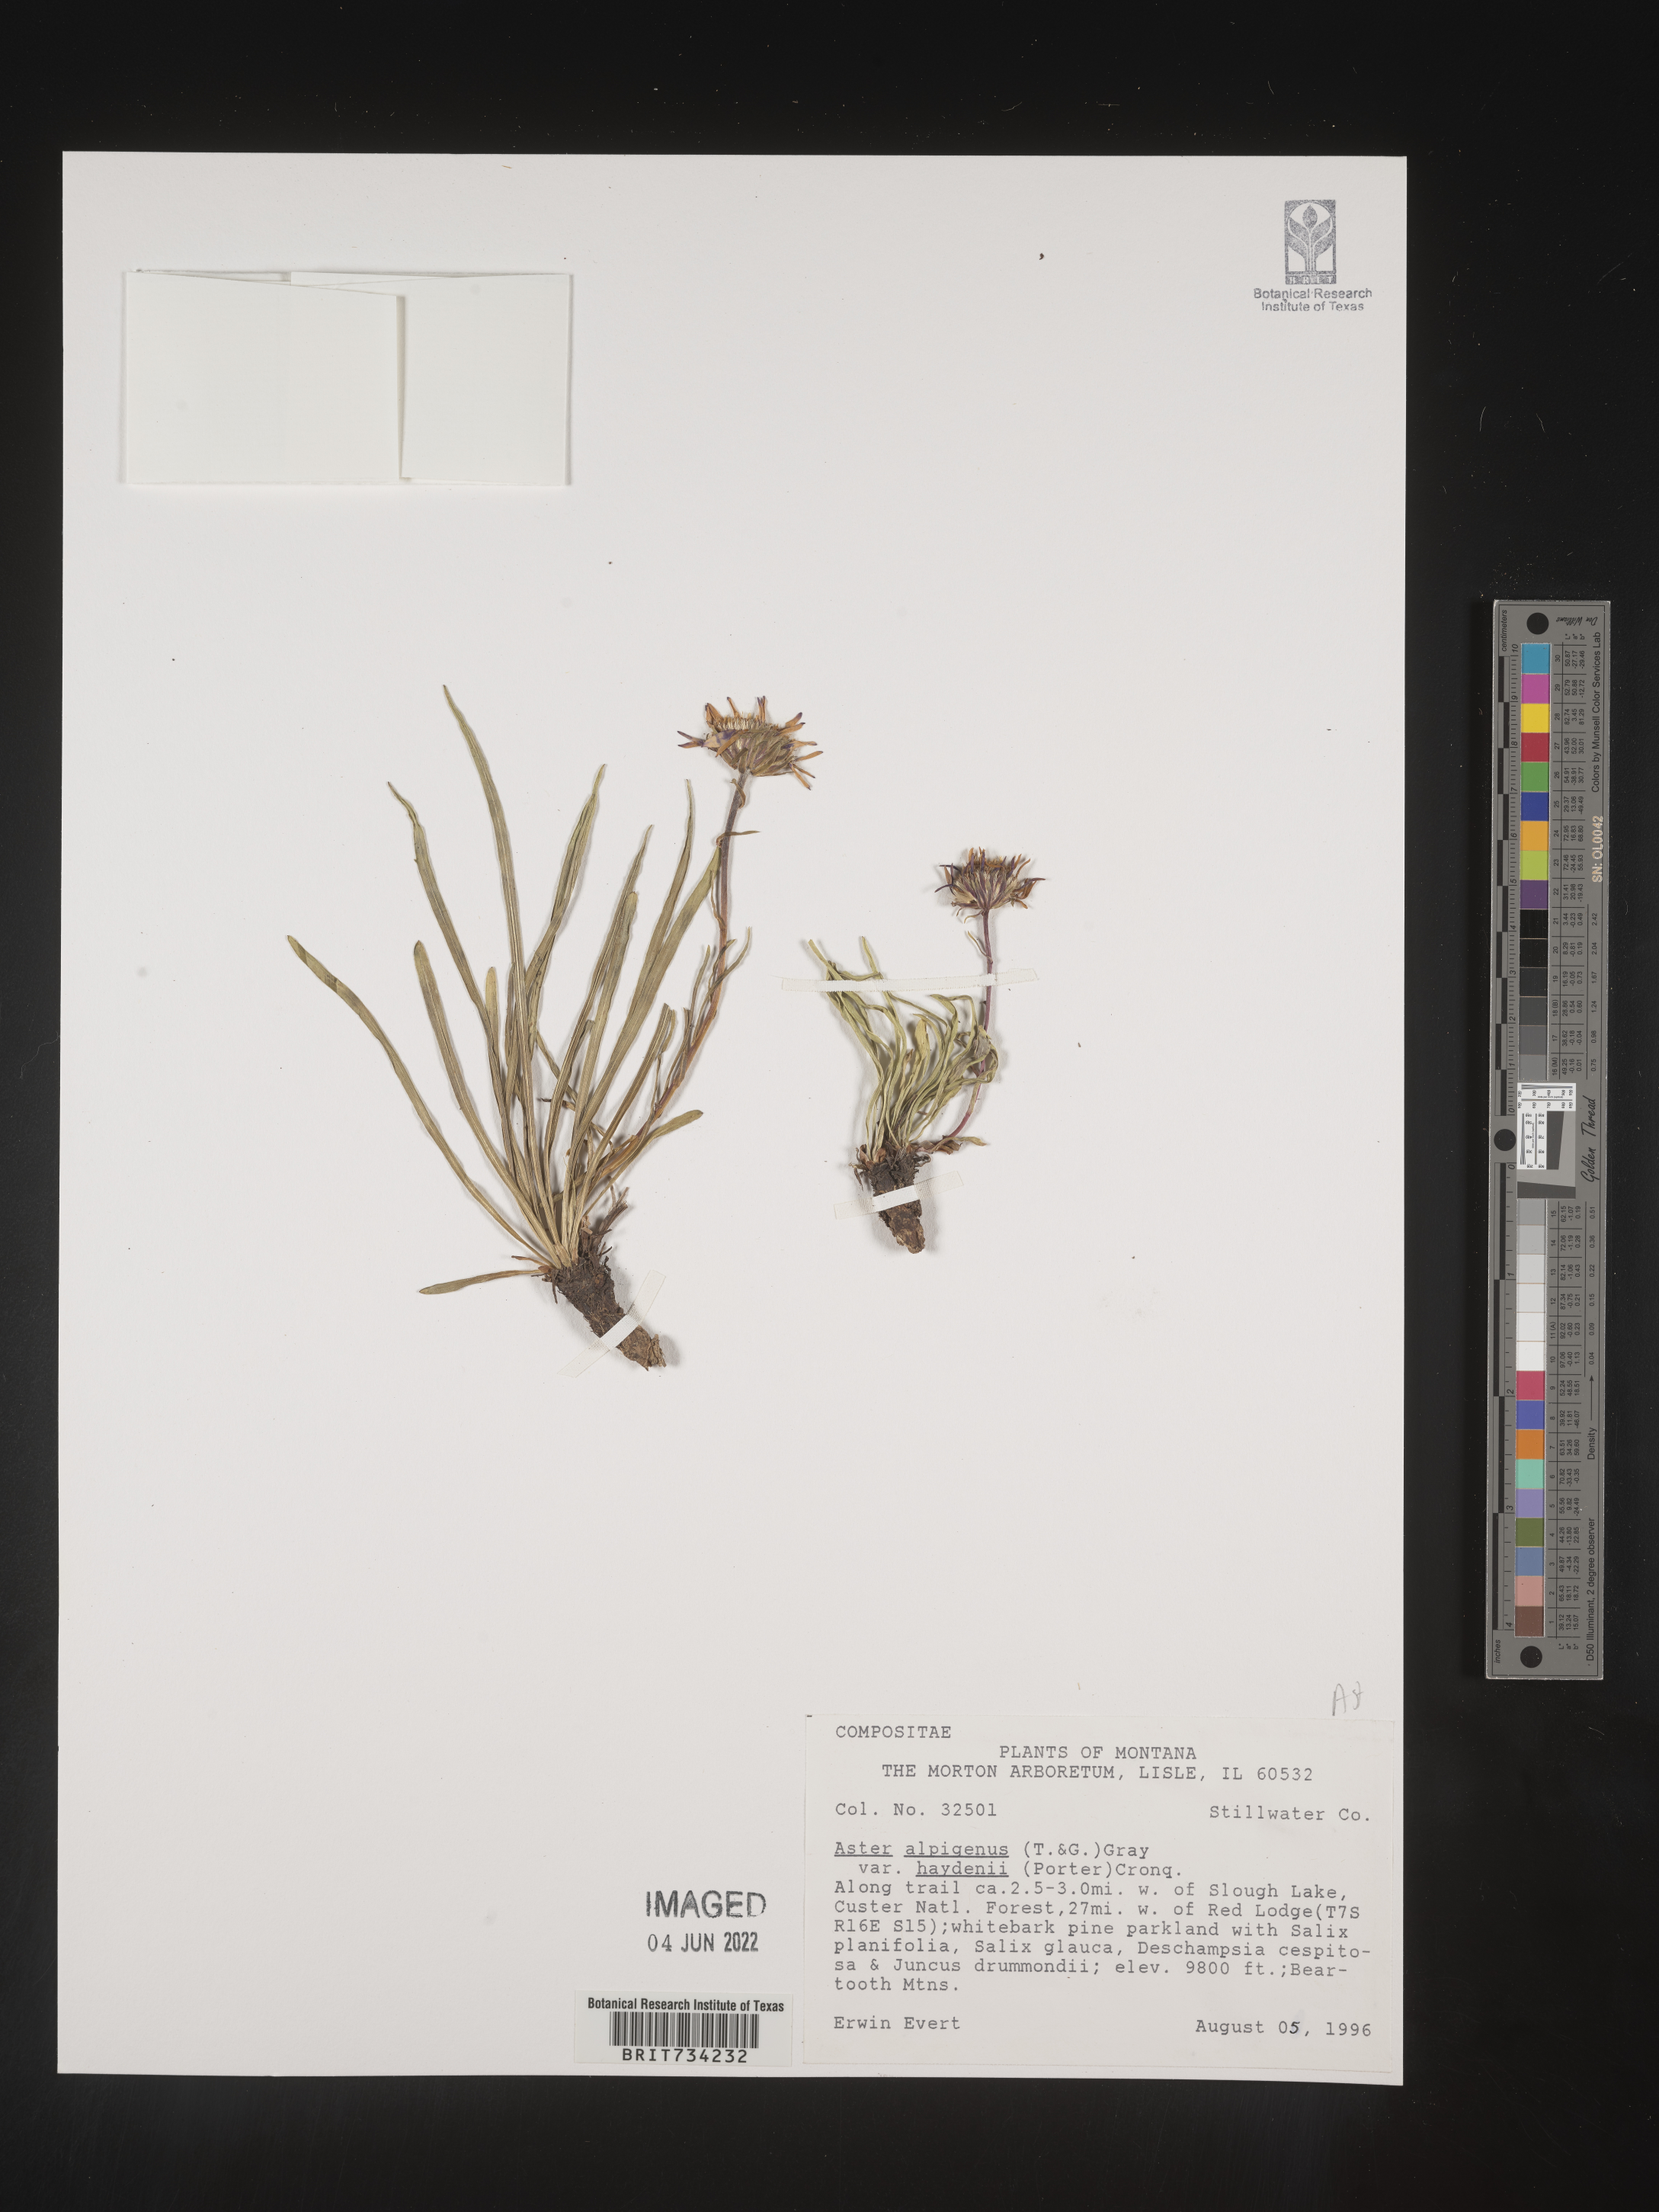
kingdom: Plantae
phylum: Tracheophyta
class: Magnoliopsida
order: Asterales
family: Asteraceae
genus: Oreostemma
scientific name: Oreostemma alpigenum
